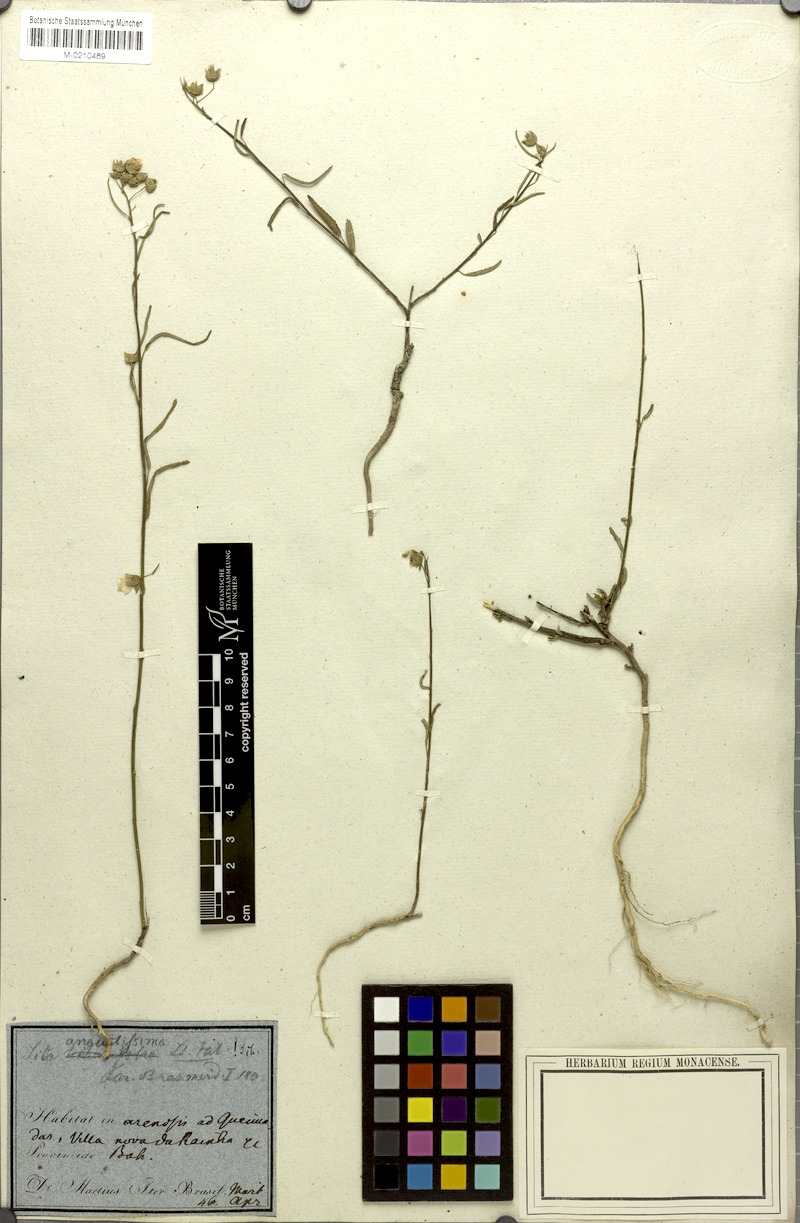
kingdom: Plantae
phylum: Tracheophyta
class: Magnoliopsida
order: Malvales
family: Malvaceae
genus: Sida
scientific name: Sida angustissima
